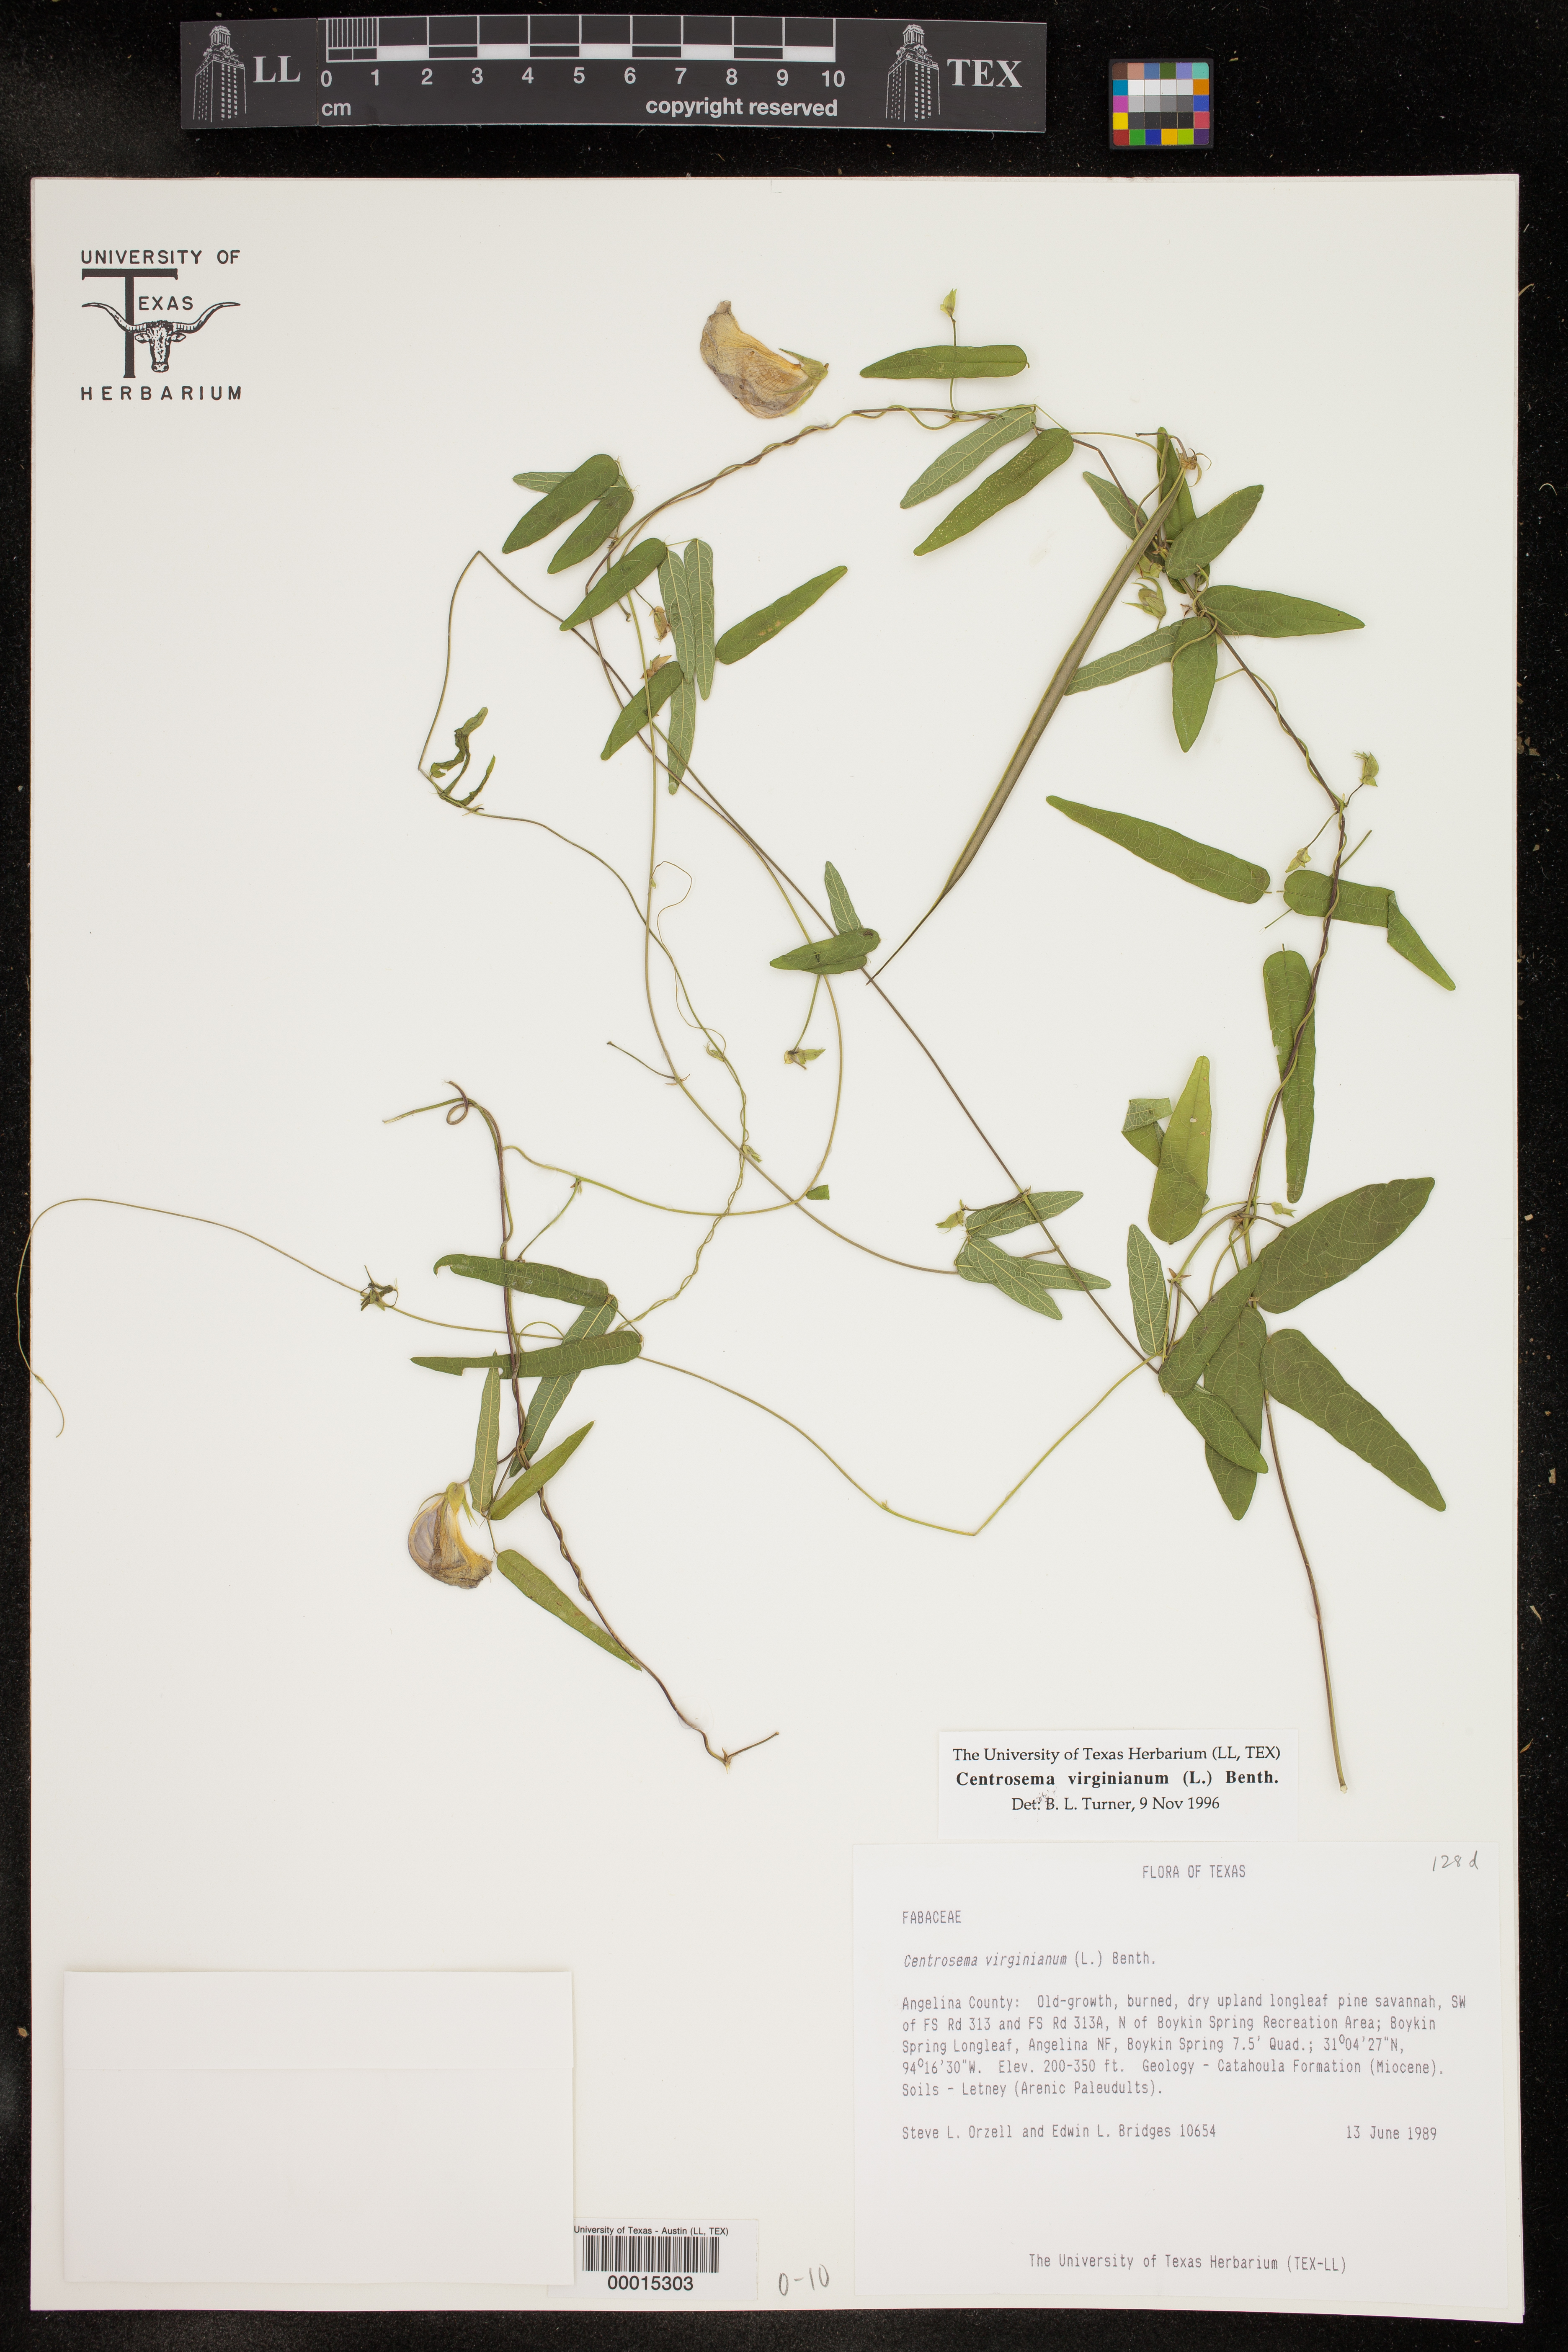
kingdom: Plantae
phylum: Tracheophyta
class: Magnoliopsida
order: Fabales
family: Fabaceae
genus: Centrosema
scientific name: Centrosema virginianum
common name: Butterfly-pea
